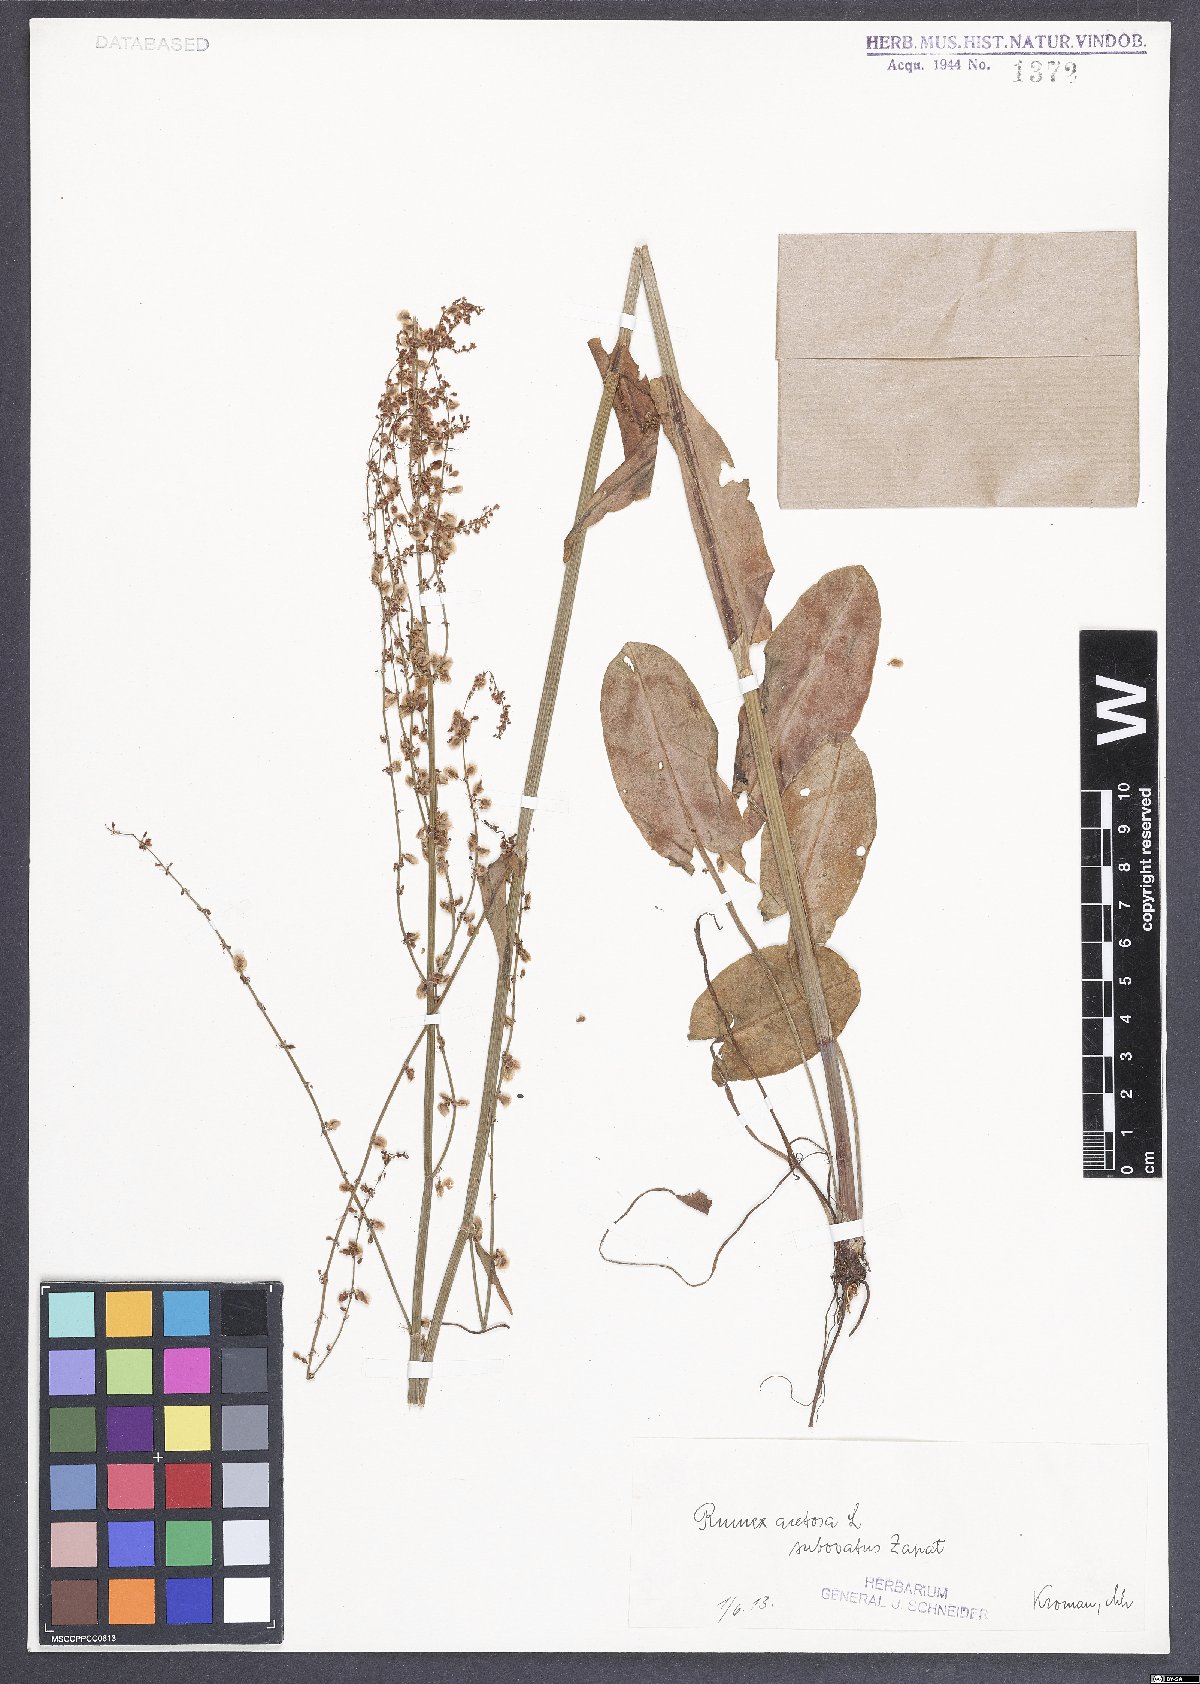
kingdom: Plantae
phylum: Tracheophyta
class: Magnoliopsida
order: Caryophyllales
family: Polygonaceae
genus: Rumex
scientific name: Rumex acetosa
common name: Garden sorrel
